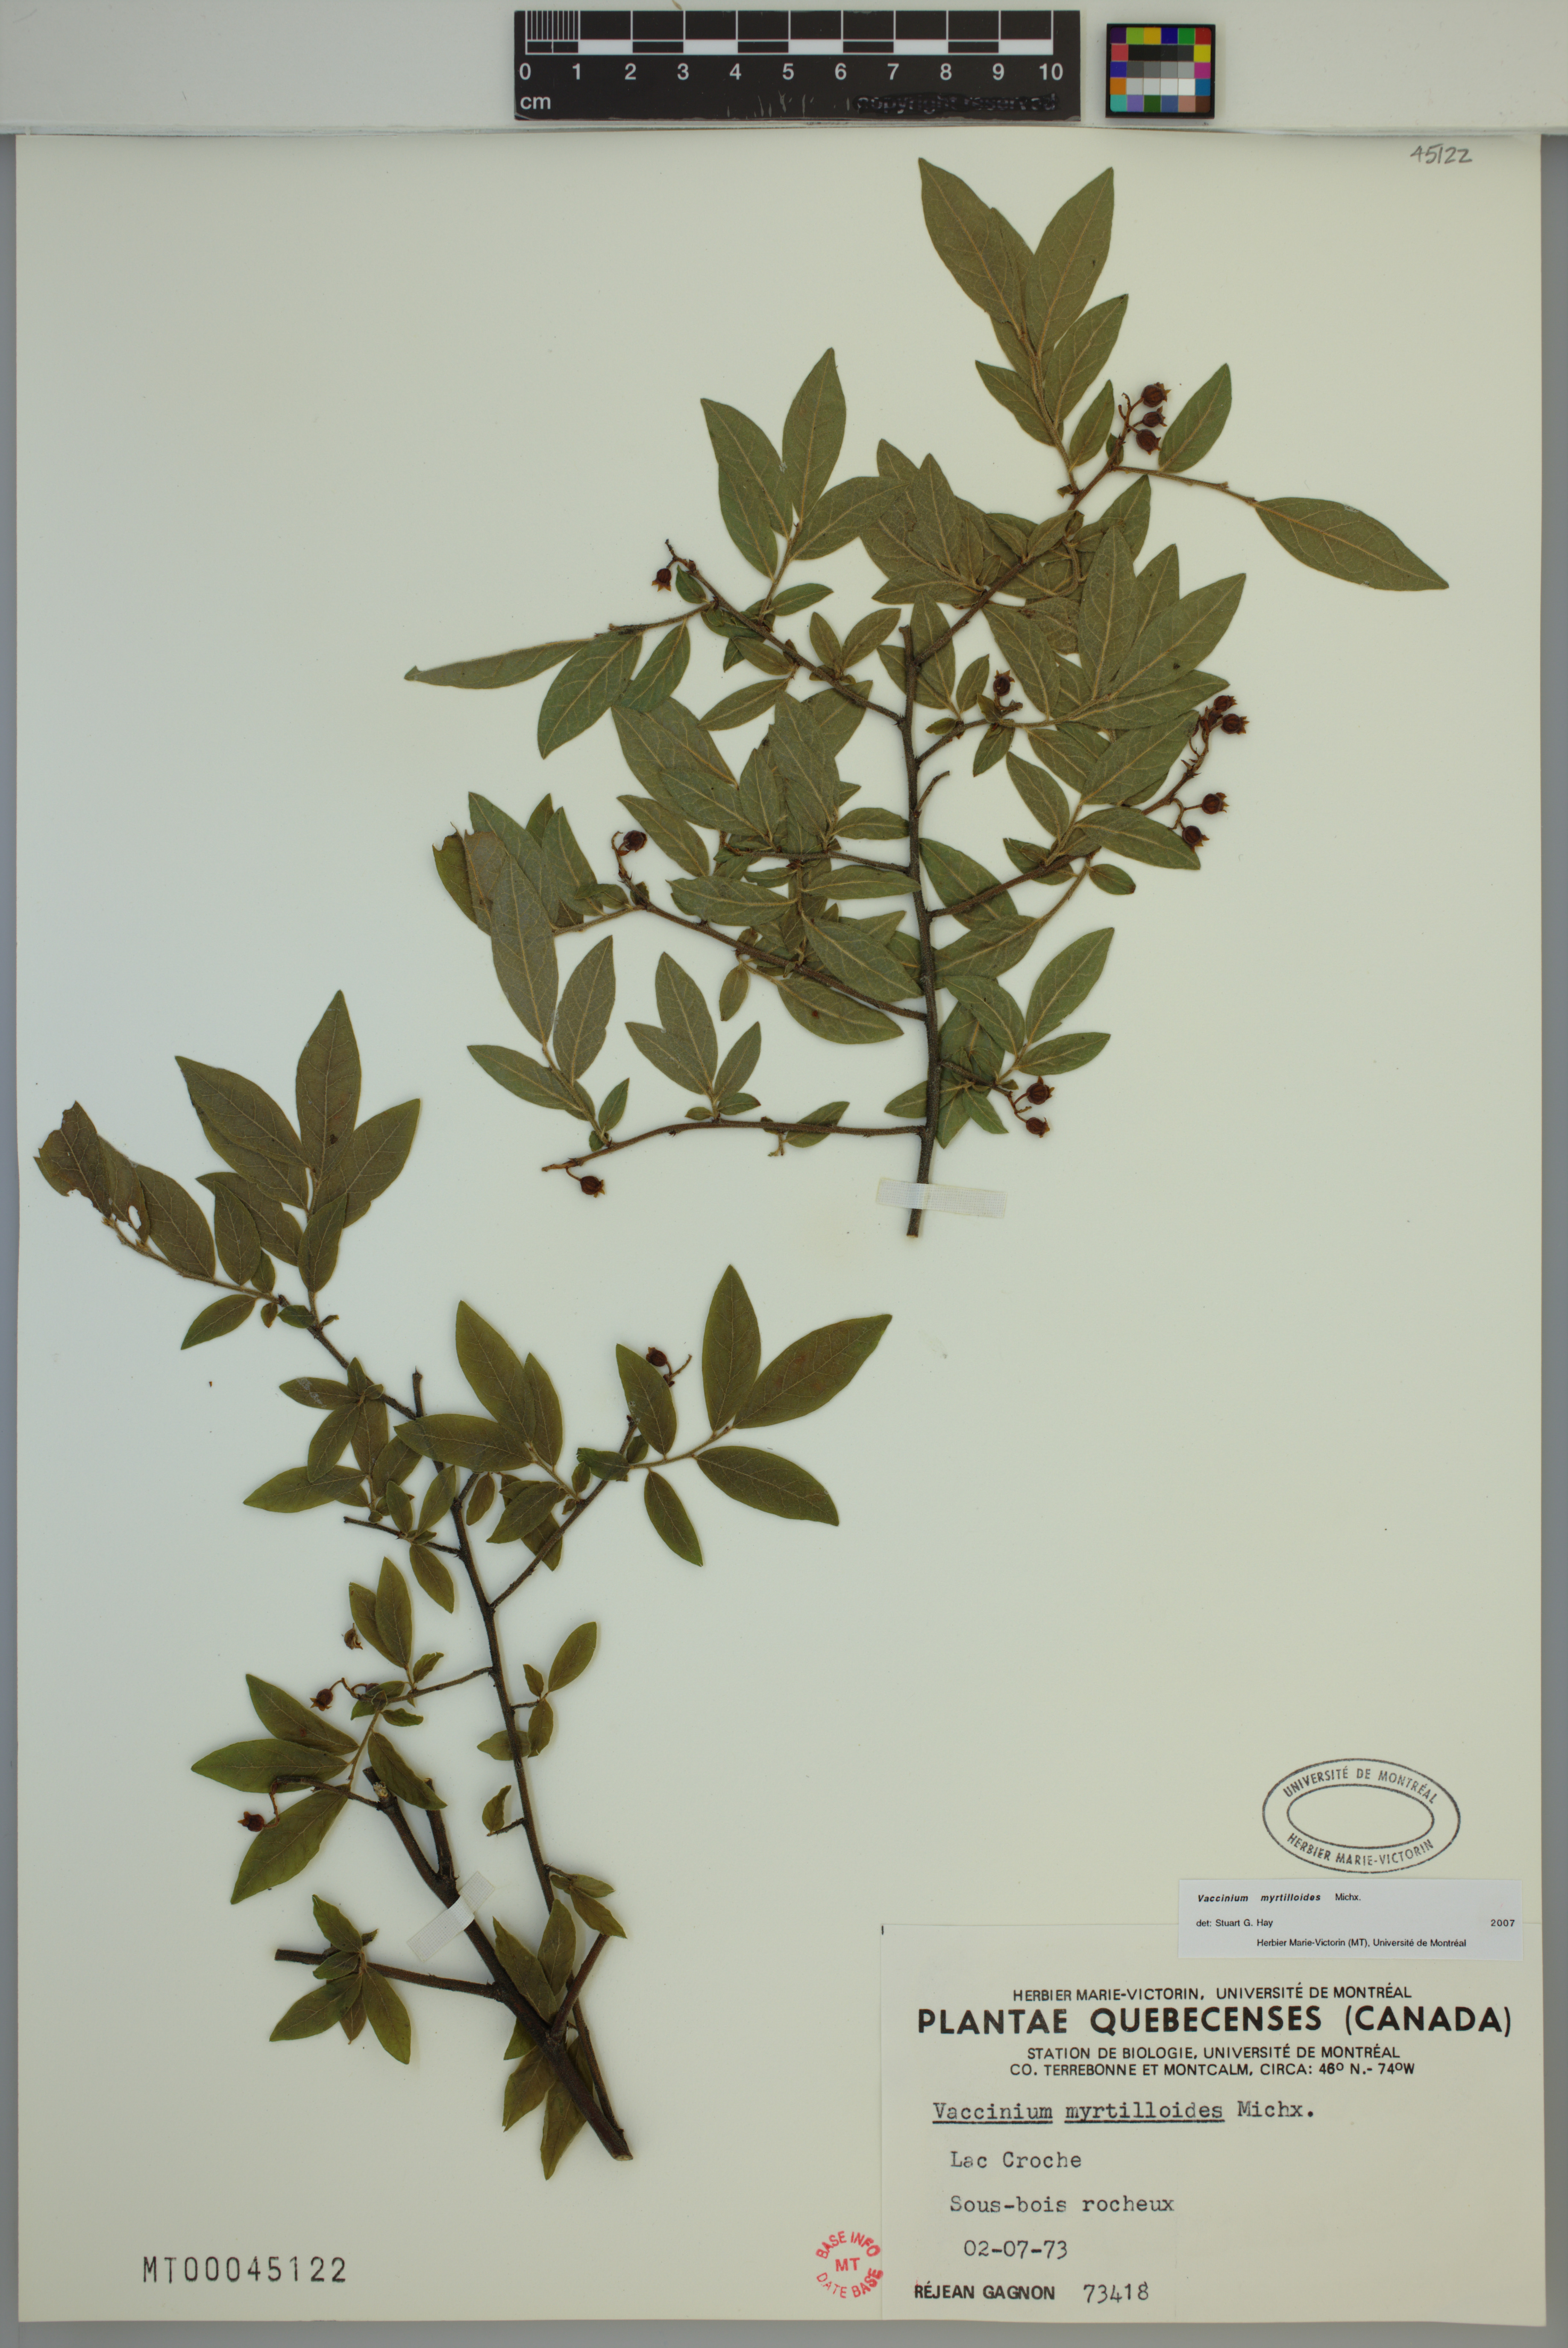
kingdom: Plantae
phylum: Tracheophyta
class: Magnoliopsida
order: Ericales
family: Ericaceae
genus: Vaccinium
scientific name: Vaccinium myrtilloides
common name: Canada blueberry
